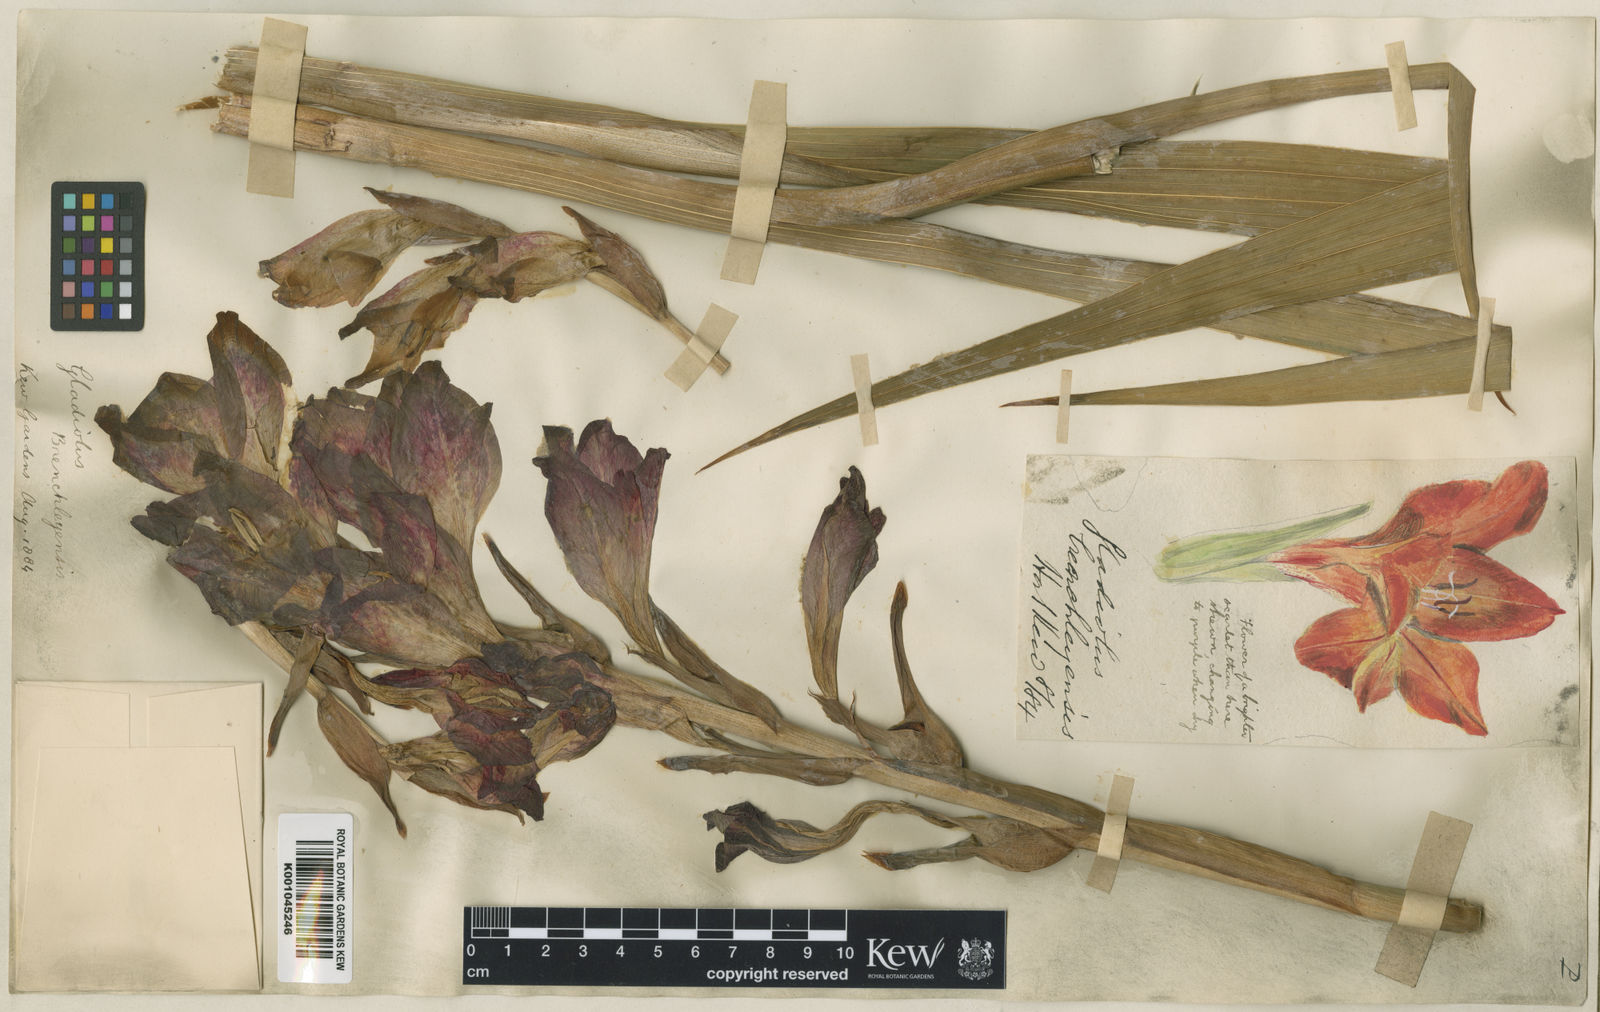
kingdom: Plantae
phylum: Tracheophyta
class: Liliopsida
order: Asparagales
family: Iridaceae
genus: Gladiolus
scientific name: Gladiolus
